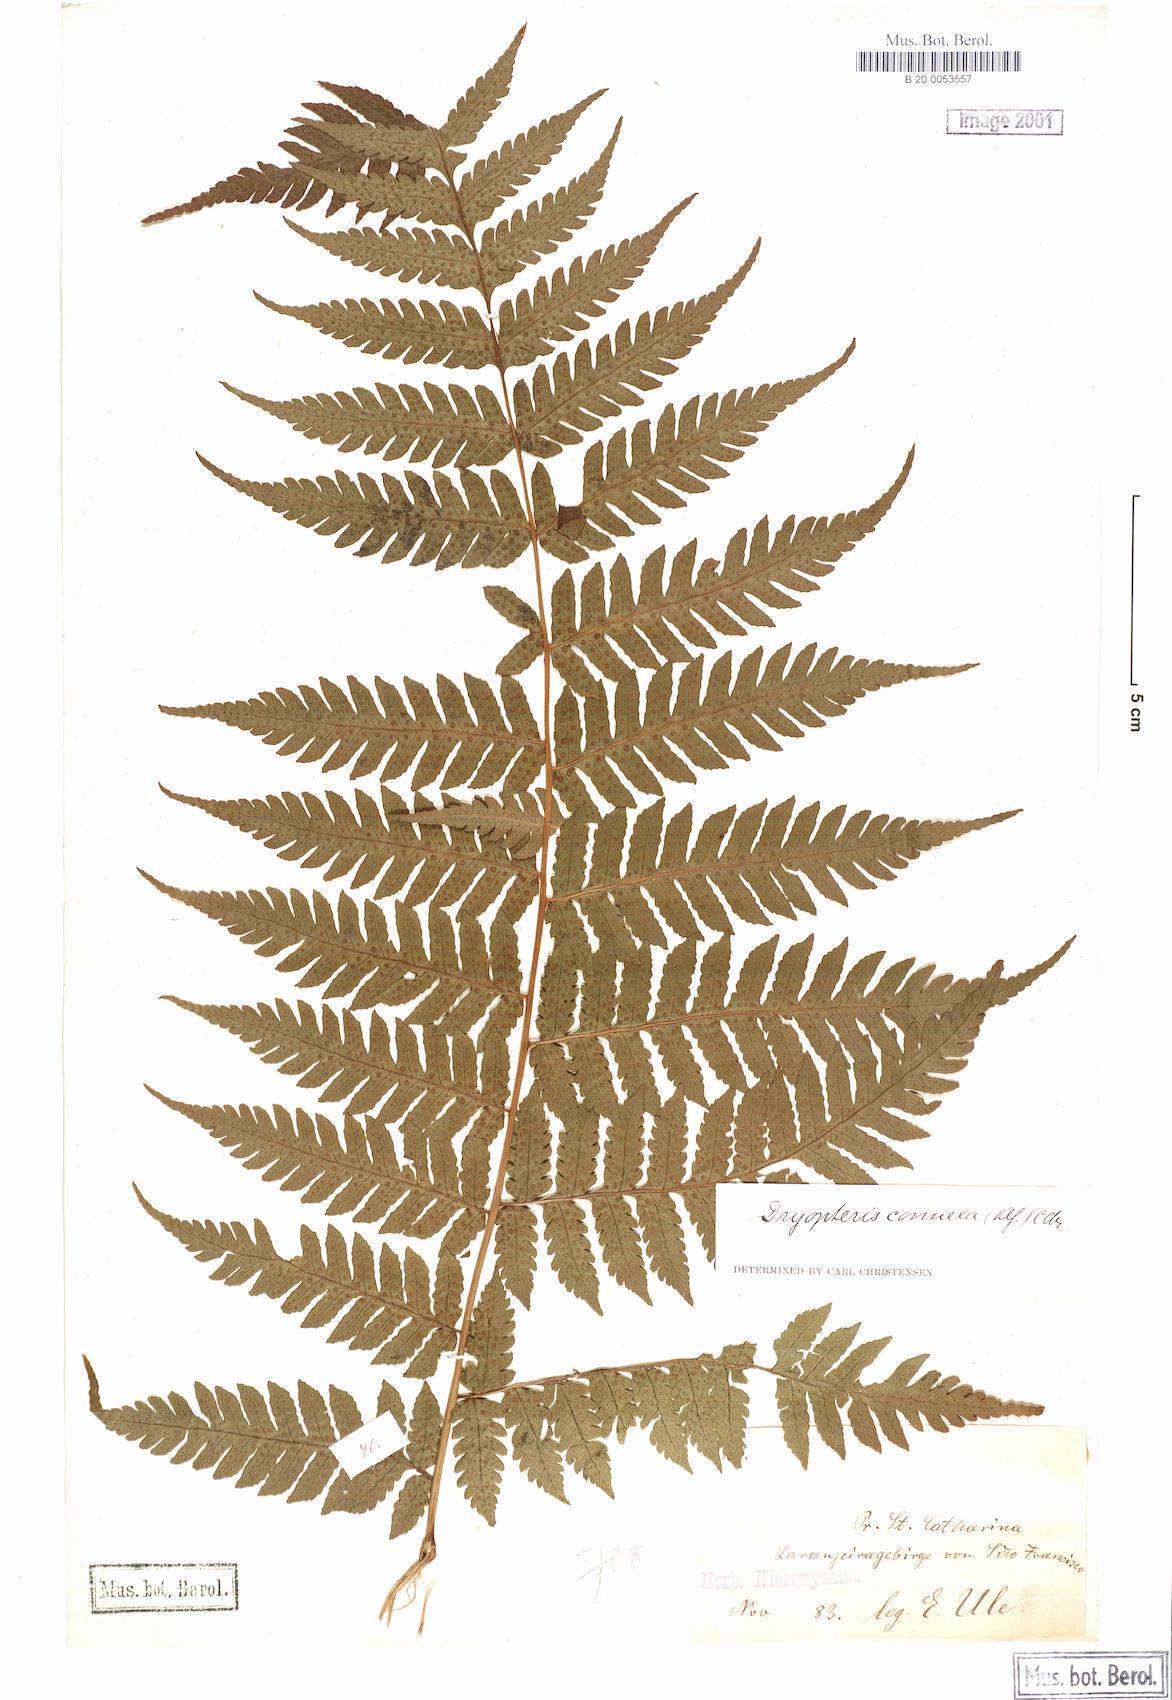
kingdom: Plantae
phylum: Tracheophyta
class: Polypodiopsida
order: Polypodiales
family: Dryopteridaceae
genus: Megalastrum
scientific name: Megalastrum connexum
